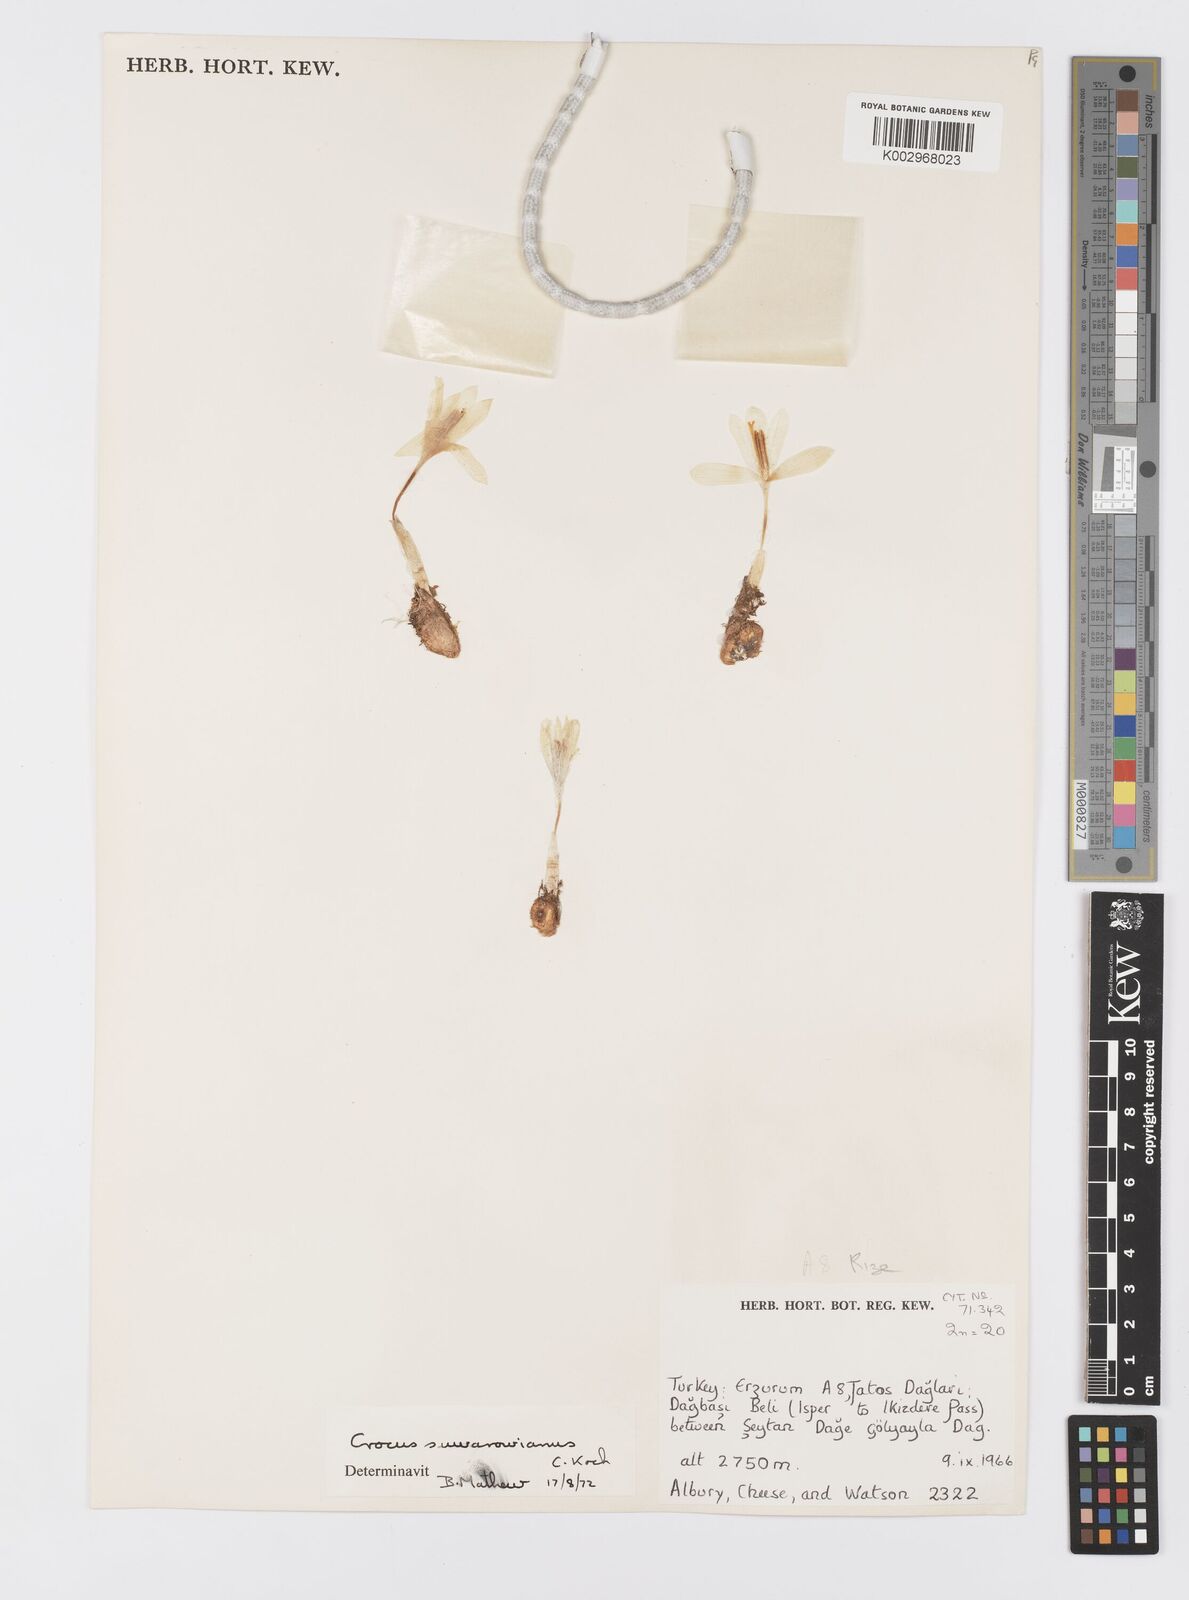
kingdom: Plantae
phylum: Tracheophyta
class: Liliopsida
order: Asparagales
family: Iridaceae
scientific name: Iridaceae
